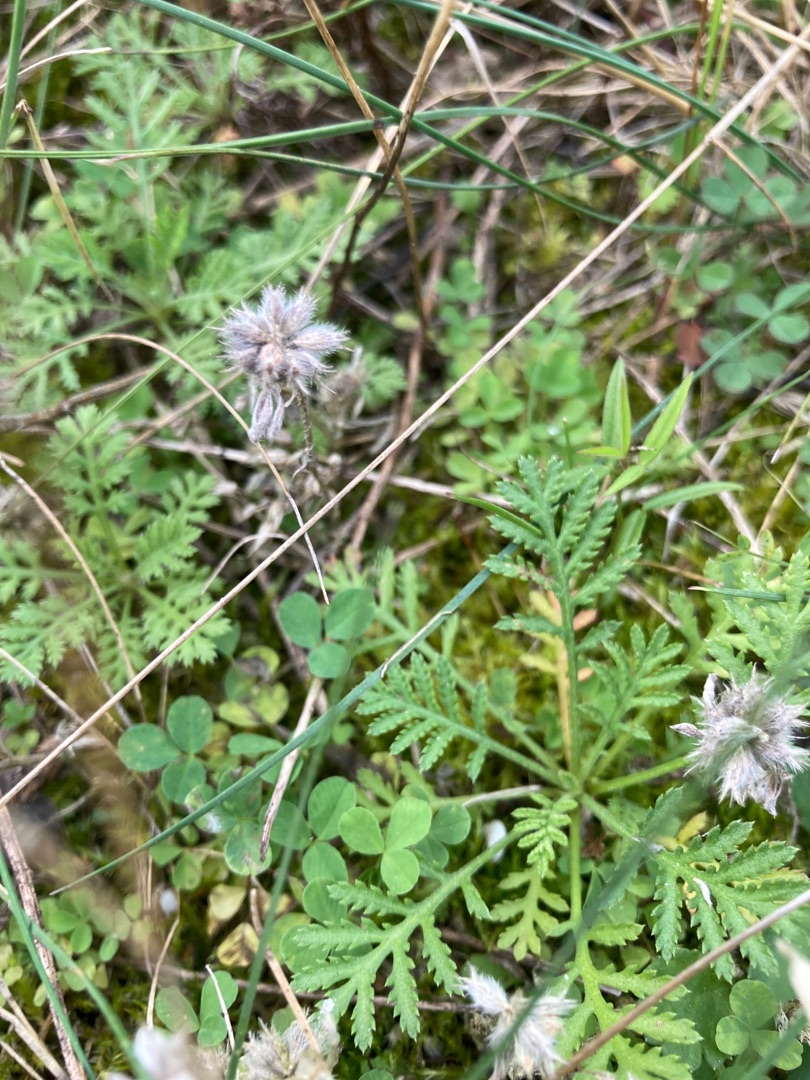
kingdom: Plantae
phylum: Tracheophyta
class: Magnoliopsida
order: Fabales
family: Fabaceae
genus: Trifolium
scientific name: Trifolium striatum
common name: Stribet kløver
